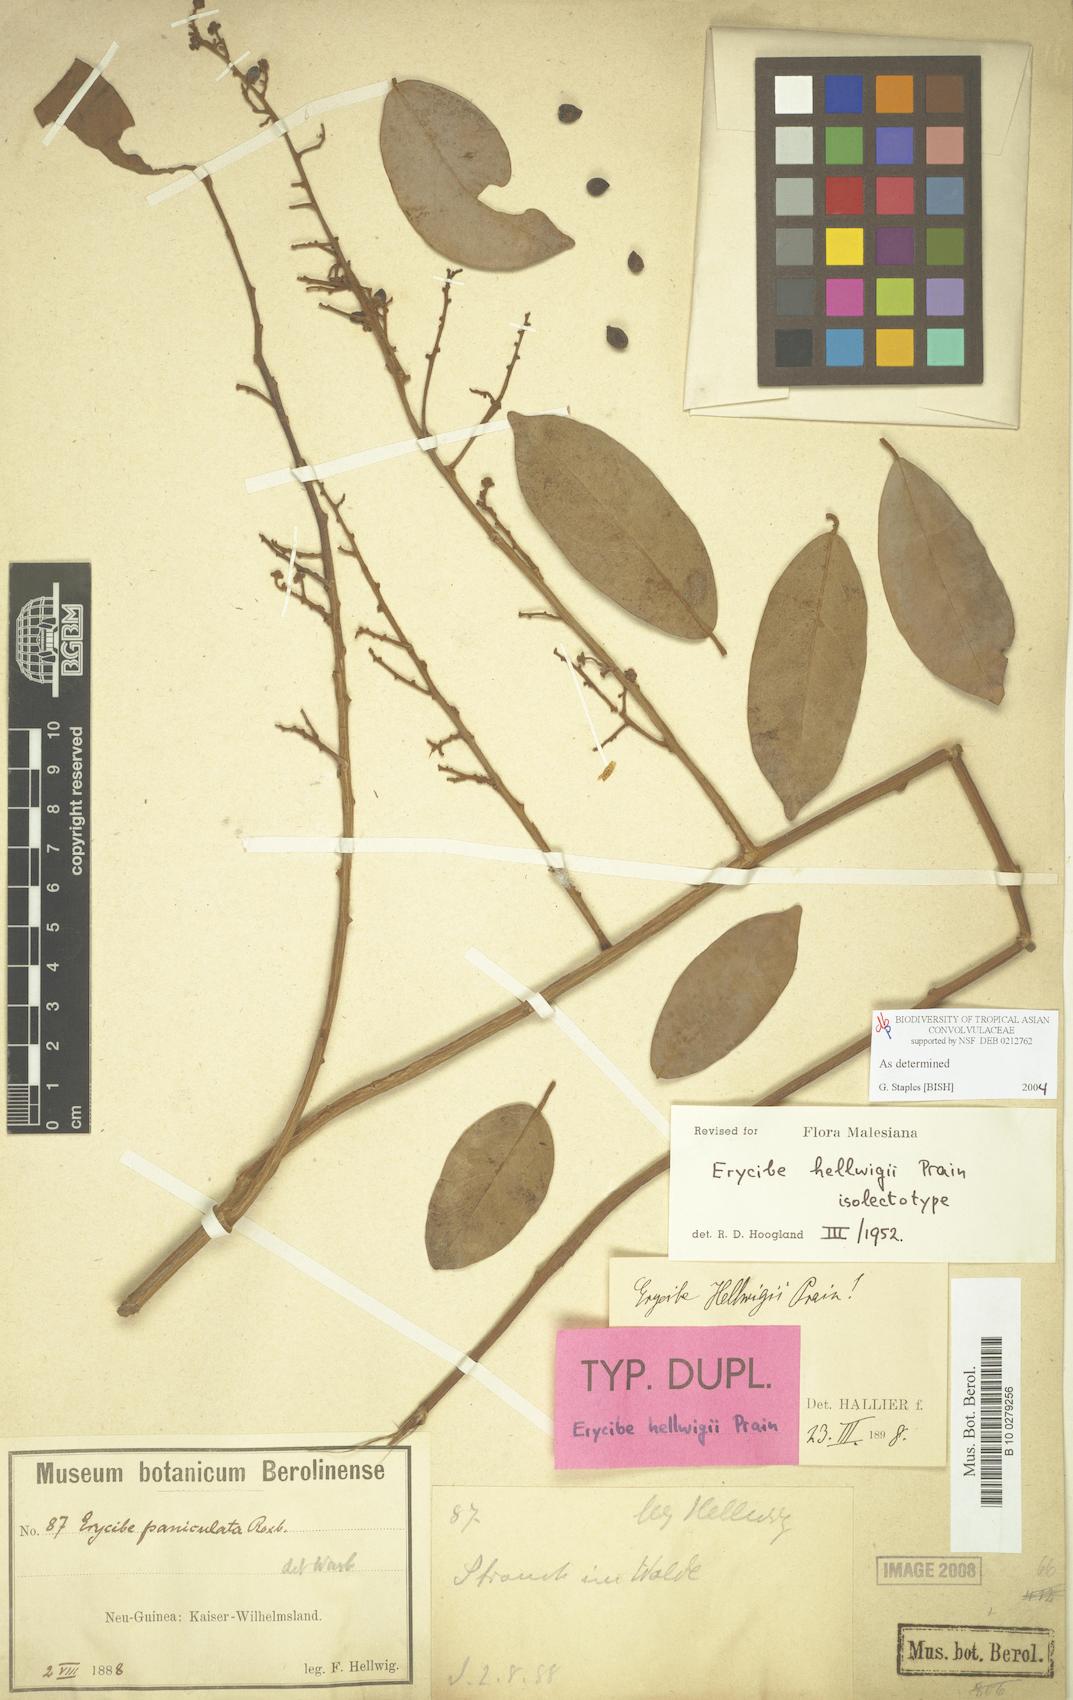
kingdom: Plantae
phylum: Tracheophyta
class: Magnoliopsida
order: Solanales
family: Convolvulaceae
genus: Erycibe
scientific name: Erycibe hellwigii
